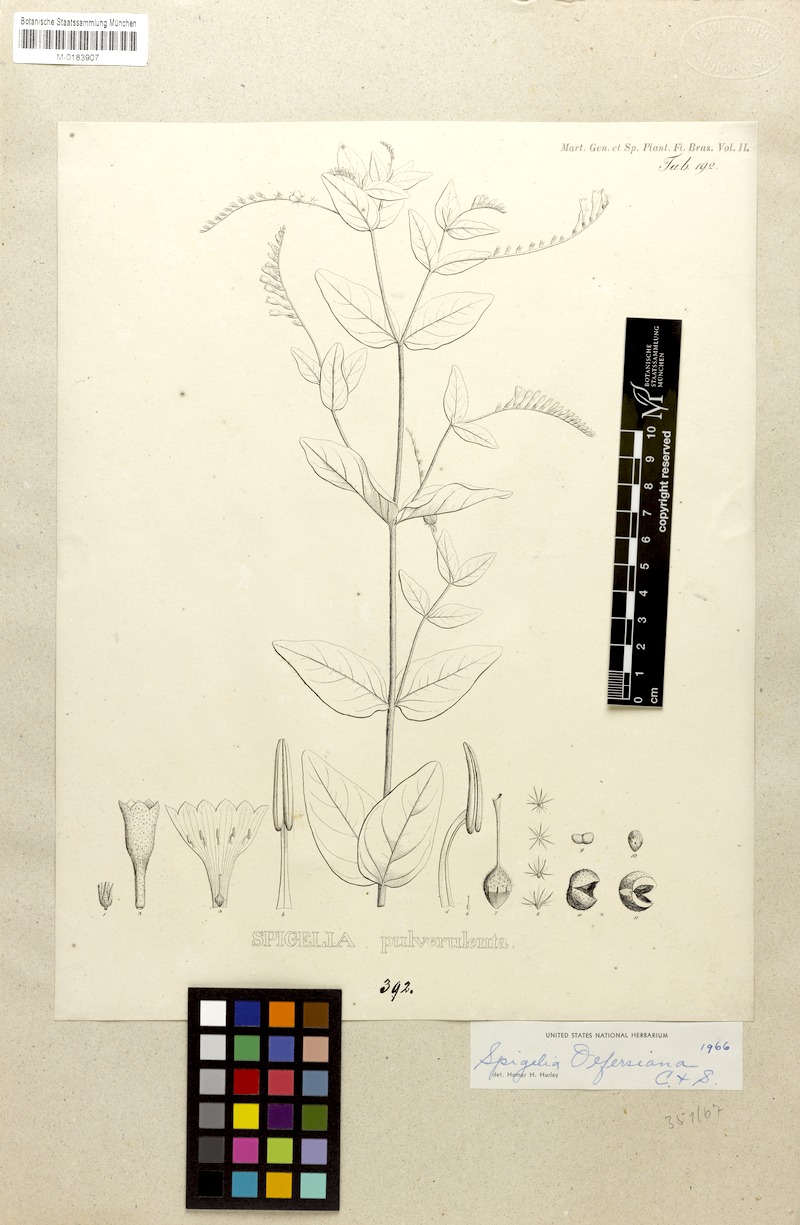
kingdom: Plantae
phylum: Tracheophyta
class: Magnoliopsida
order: Gentianales
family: Loganiaceae
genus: Spigelia
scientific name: Spigelia olfersiana
